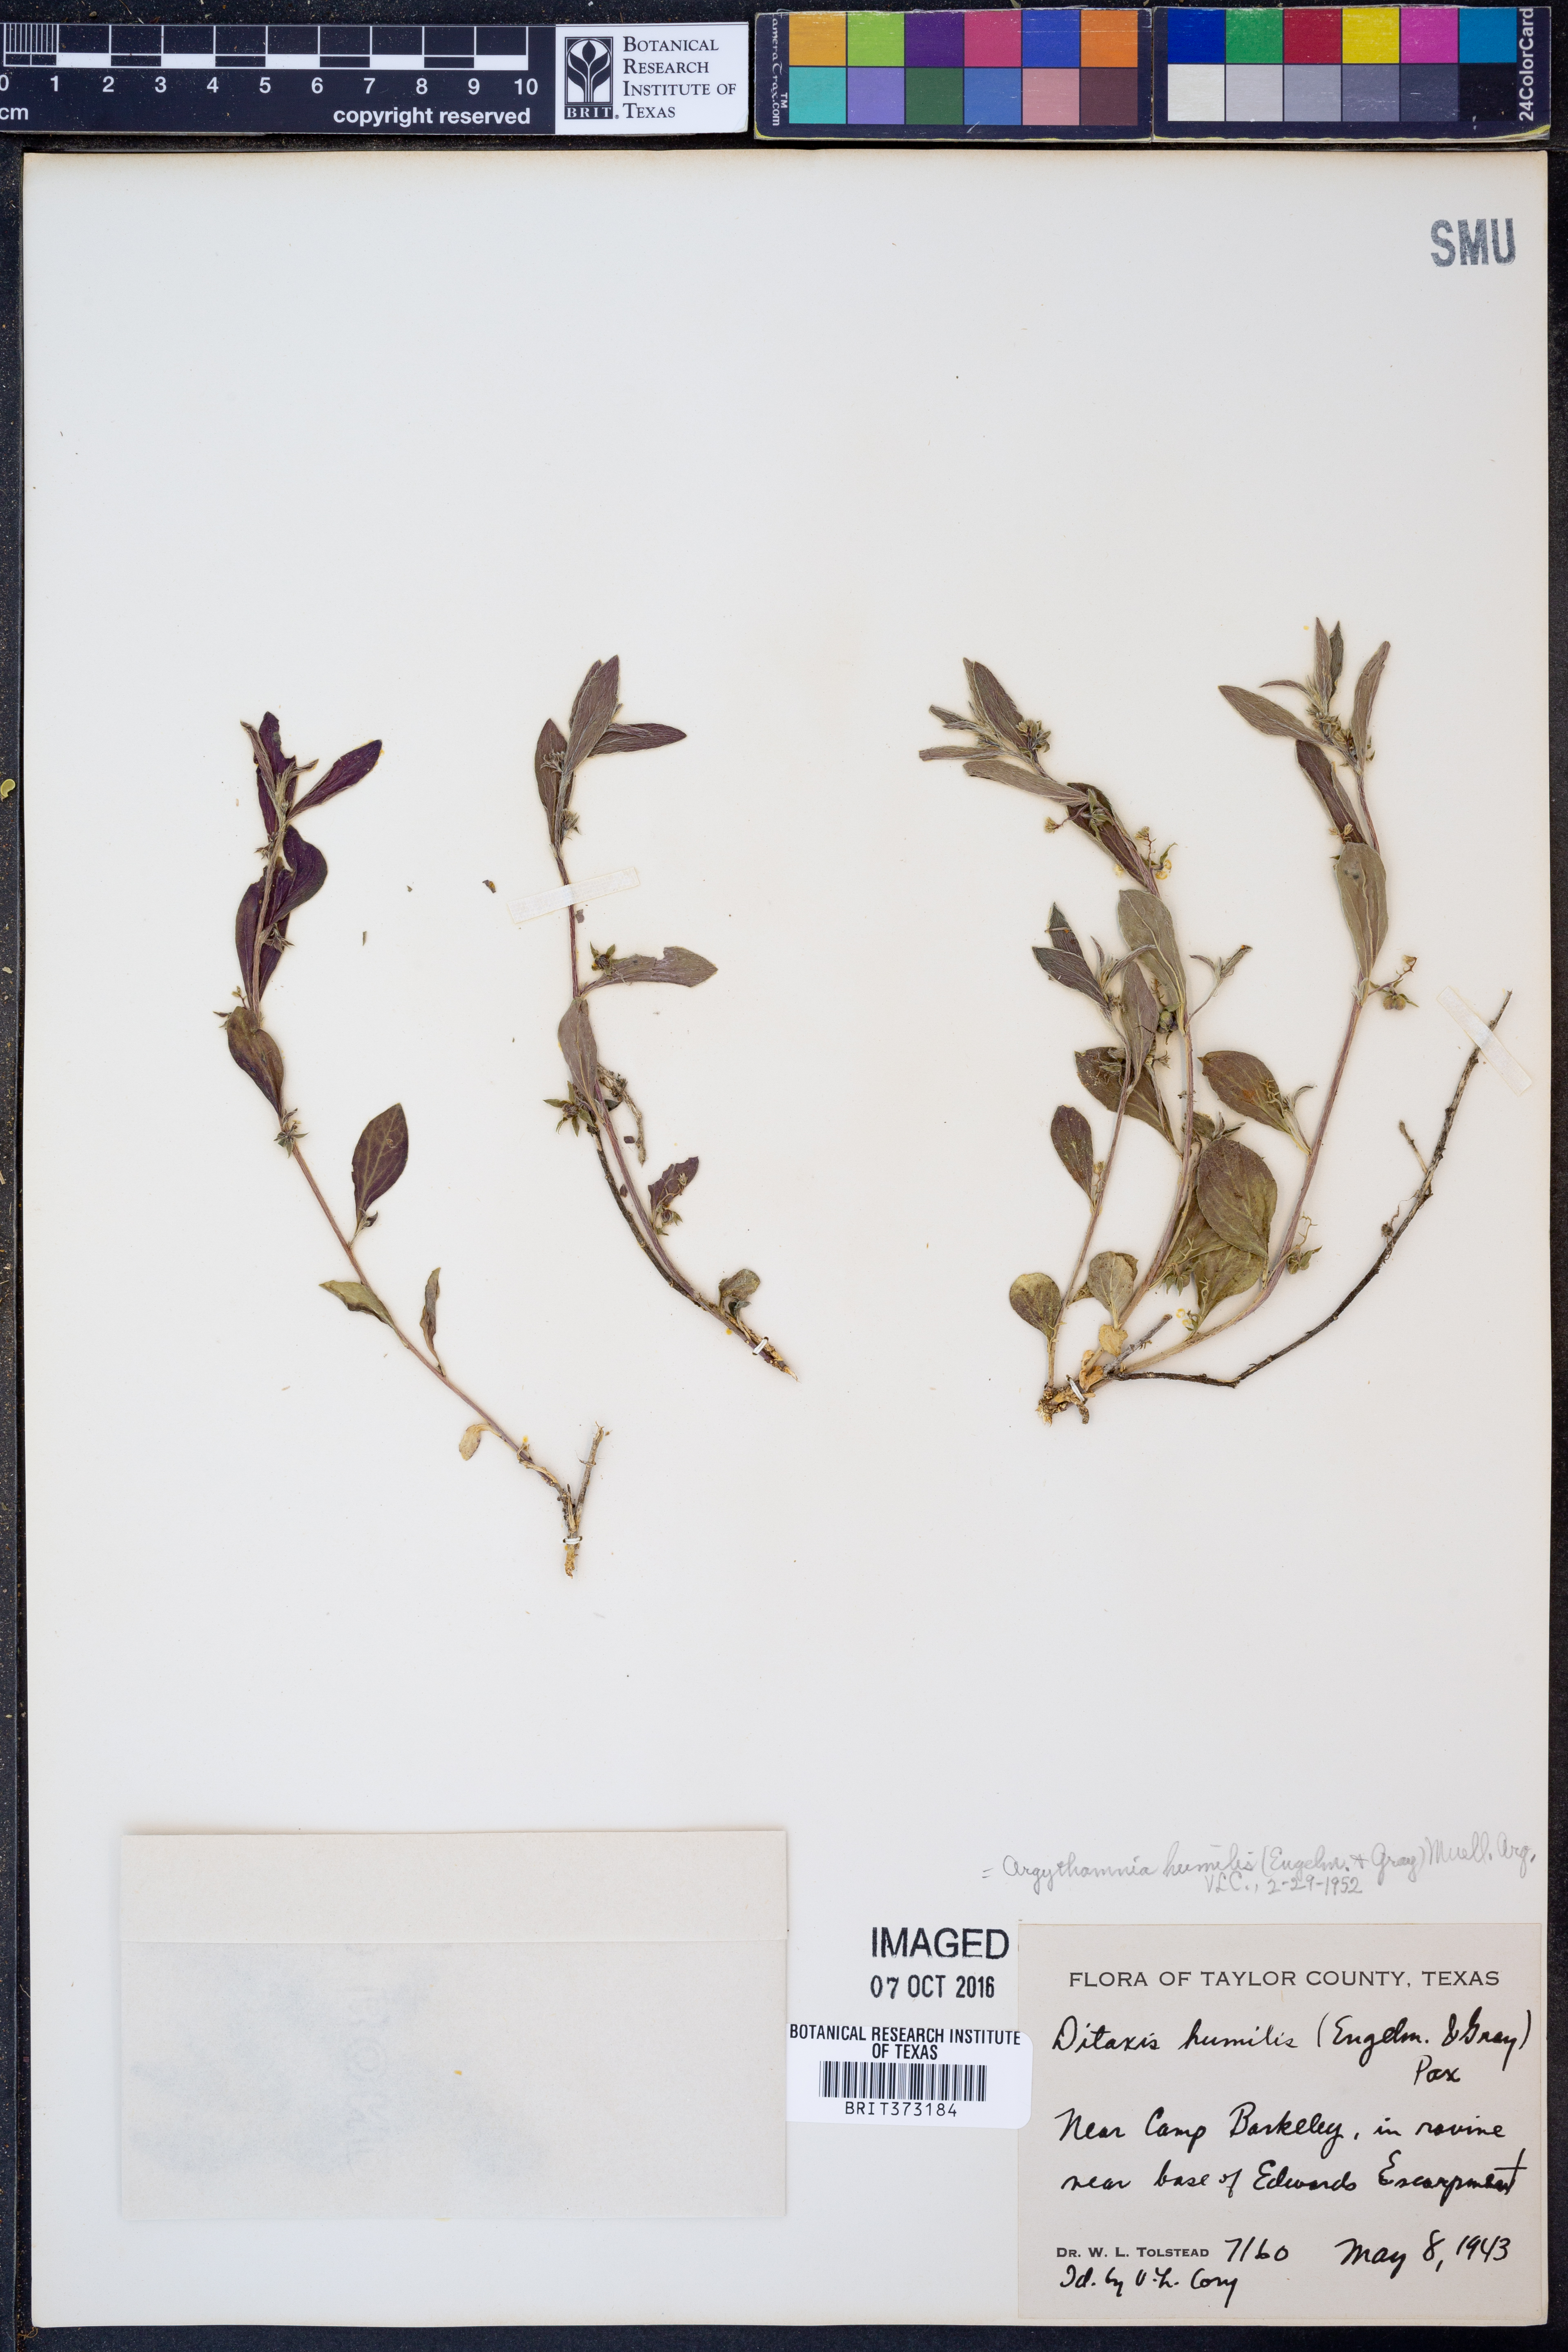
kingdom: Plantae
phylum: Tracheophyta
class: Magnoliopsida
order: Malpighiales
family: Euphorbiaceae
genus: Ditaxis
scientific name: Ditaxis humilis
